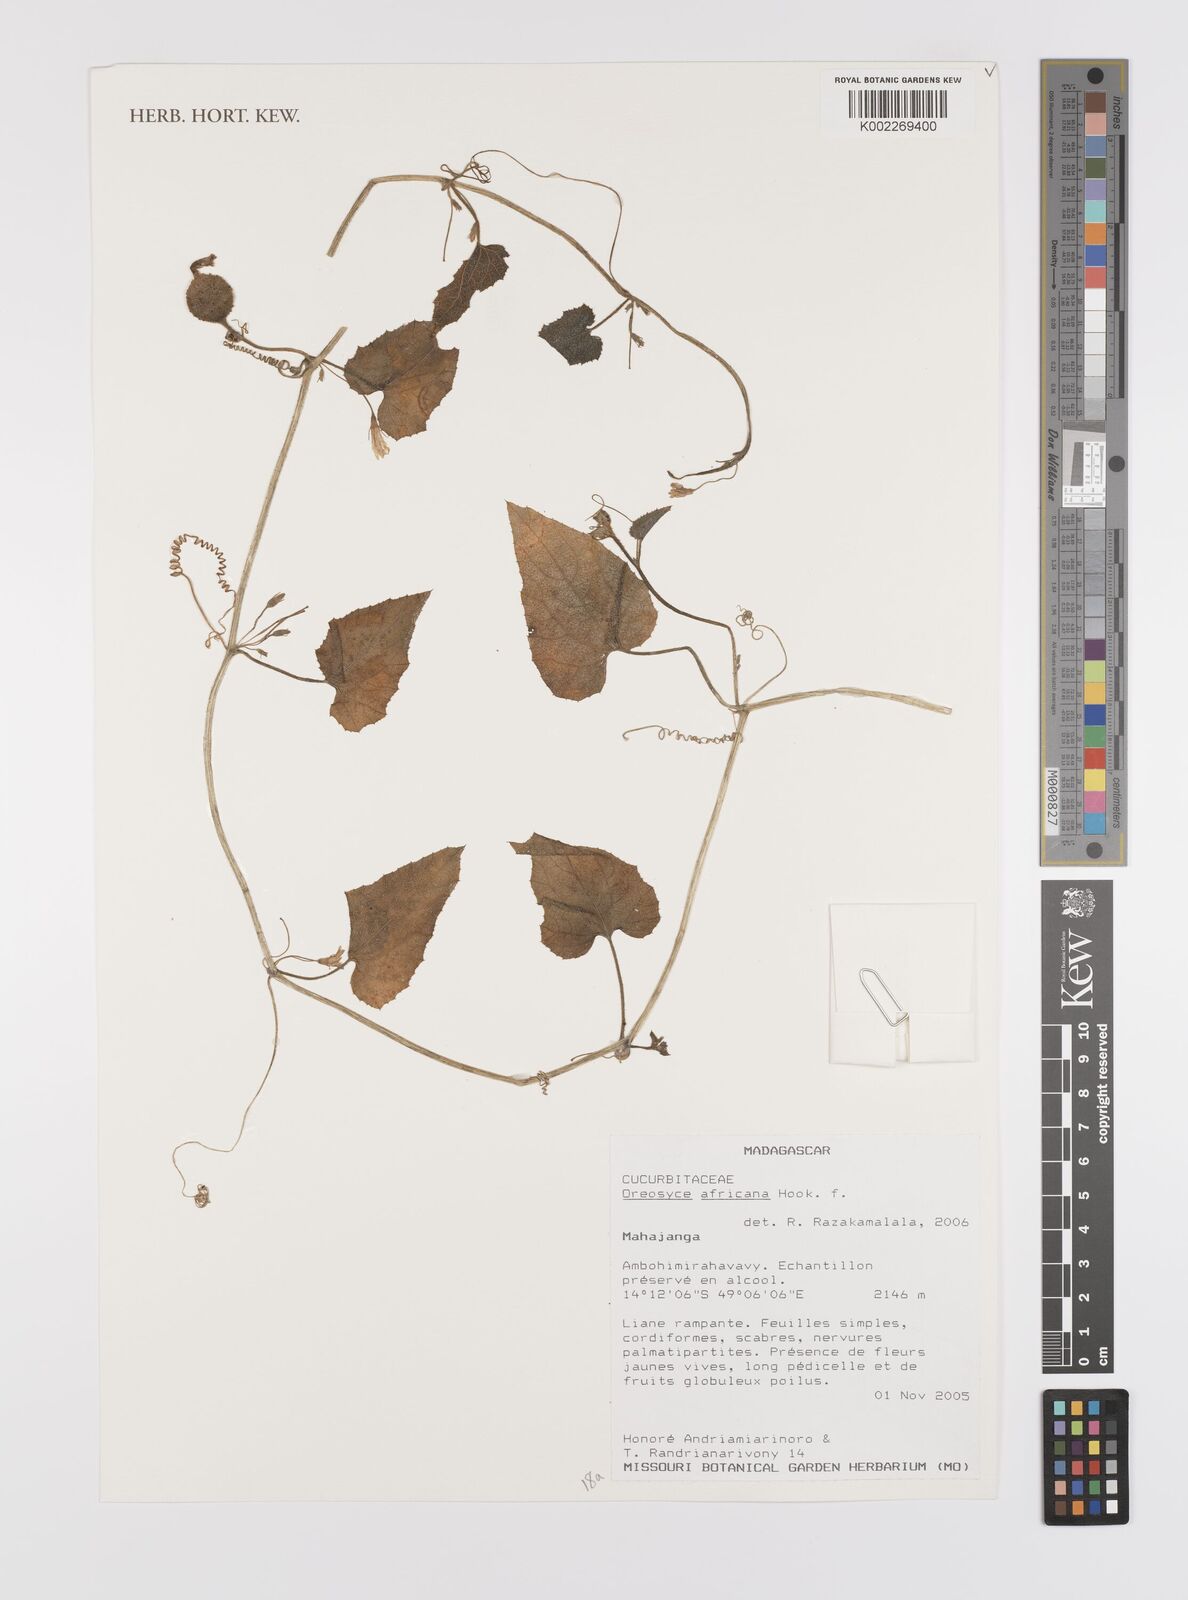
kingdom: Plantae
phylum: Tracheophyta
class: Magnoliopsida
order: Cucurbitales
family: Cucurbitaceae
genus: Cucumis
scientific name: Cucumis oreosyce
